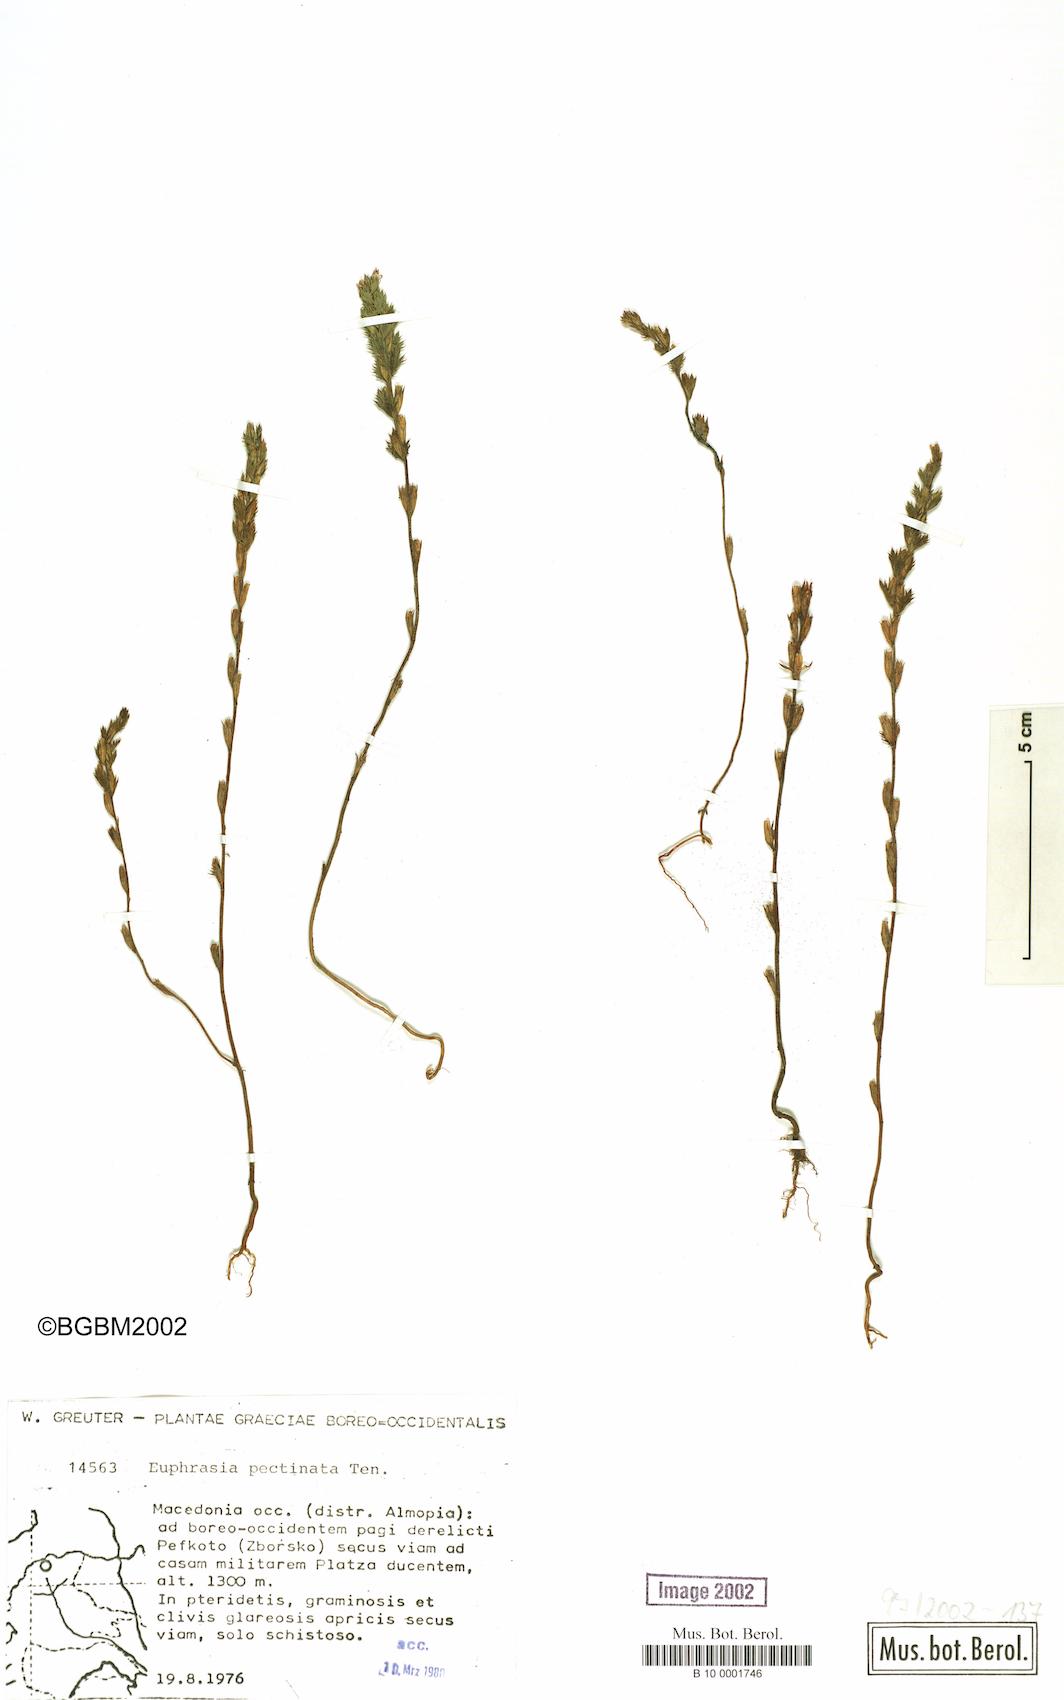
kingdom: Plantae
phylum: Tracheophyta
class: Magnoliopsida
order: Lamiales
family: Orobanchaceae
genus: Euphrasia
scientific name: Euphrasia pectinata
